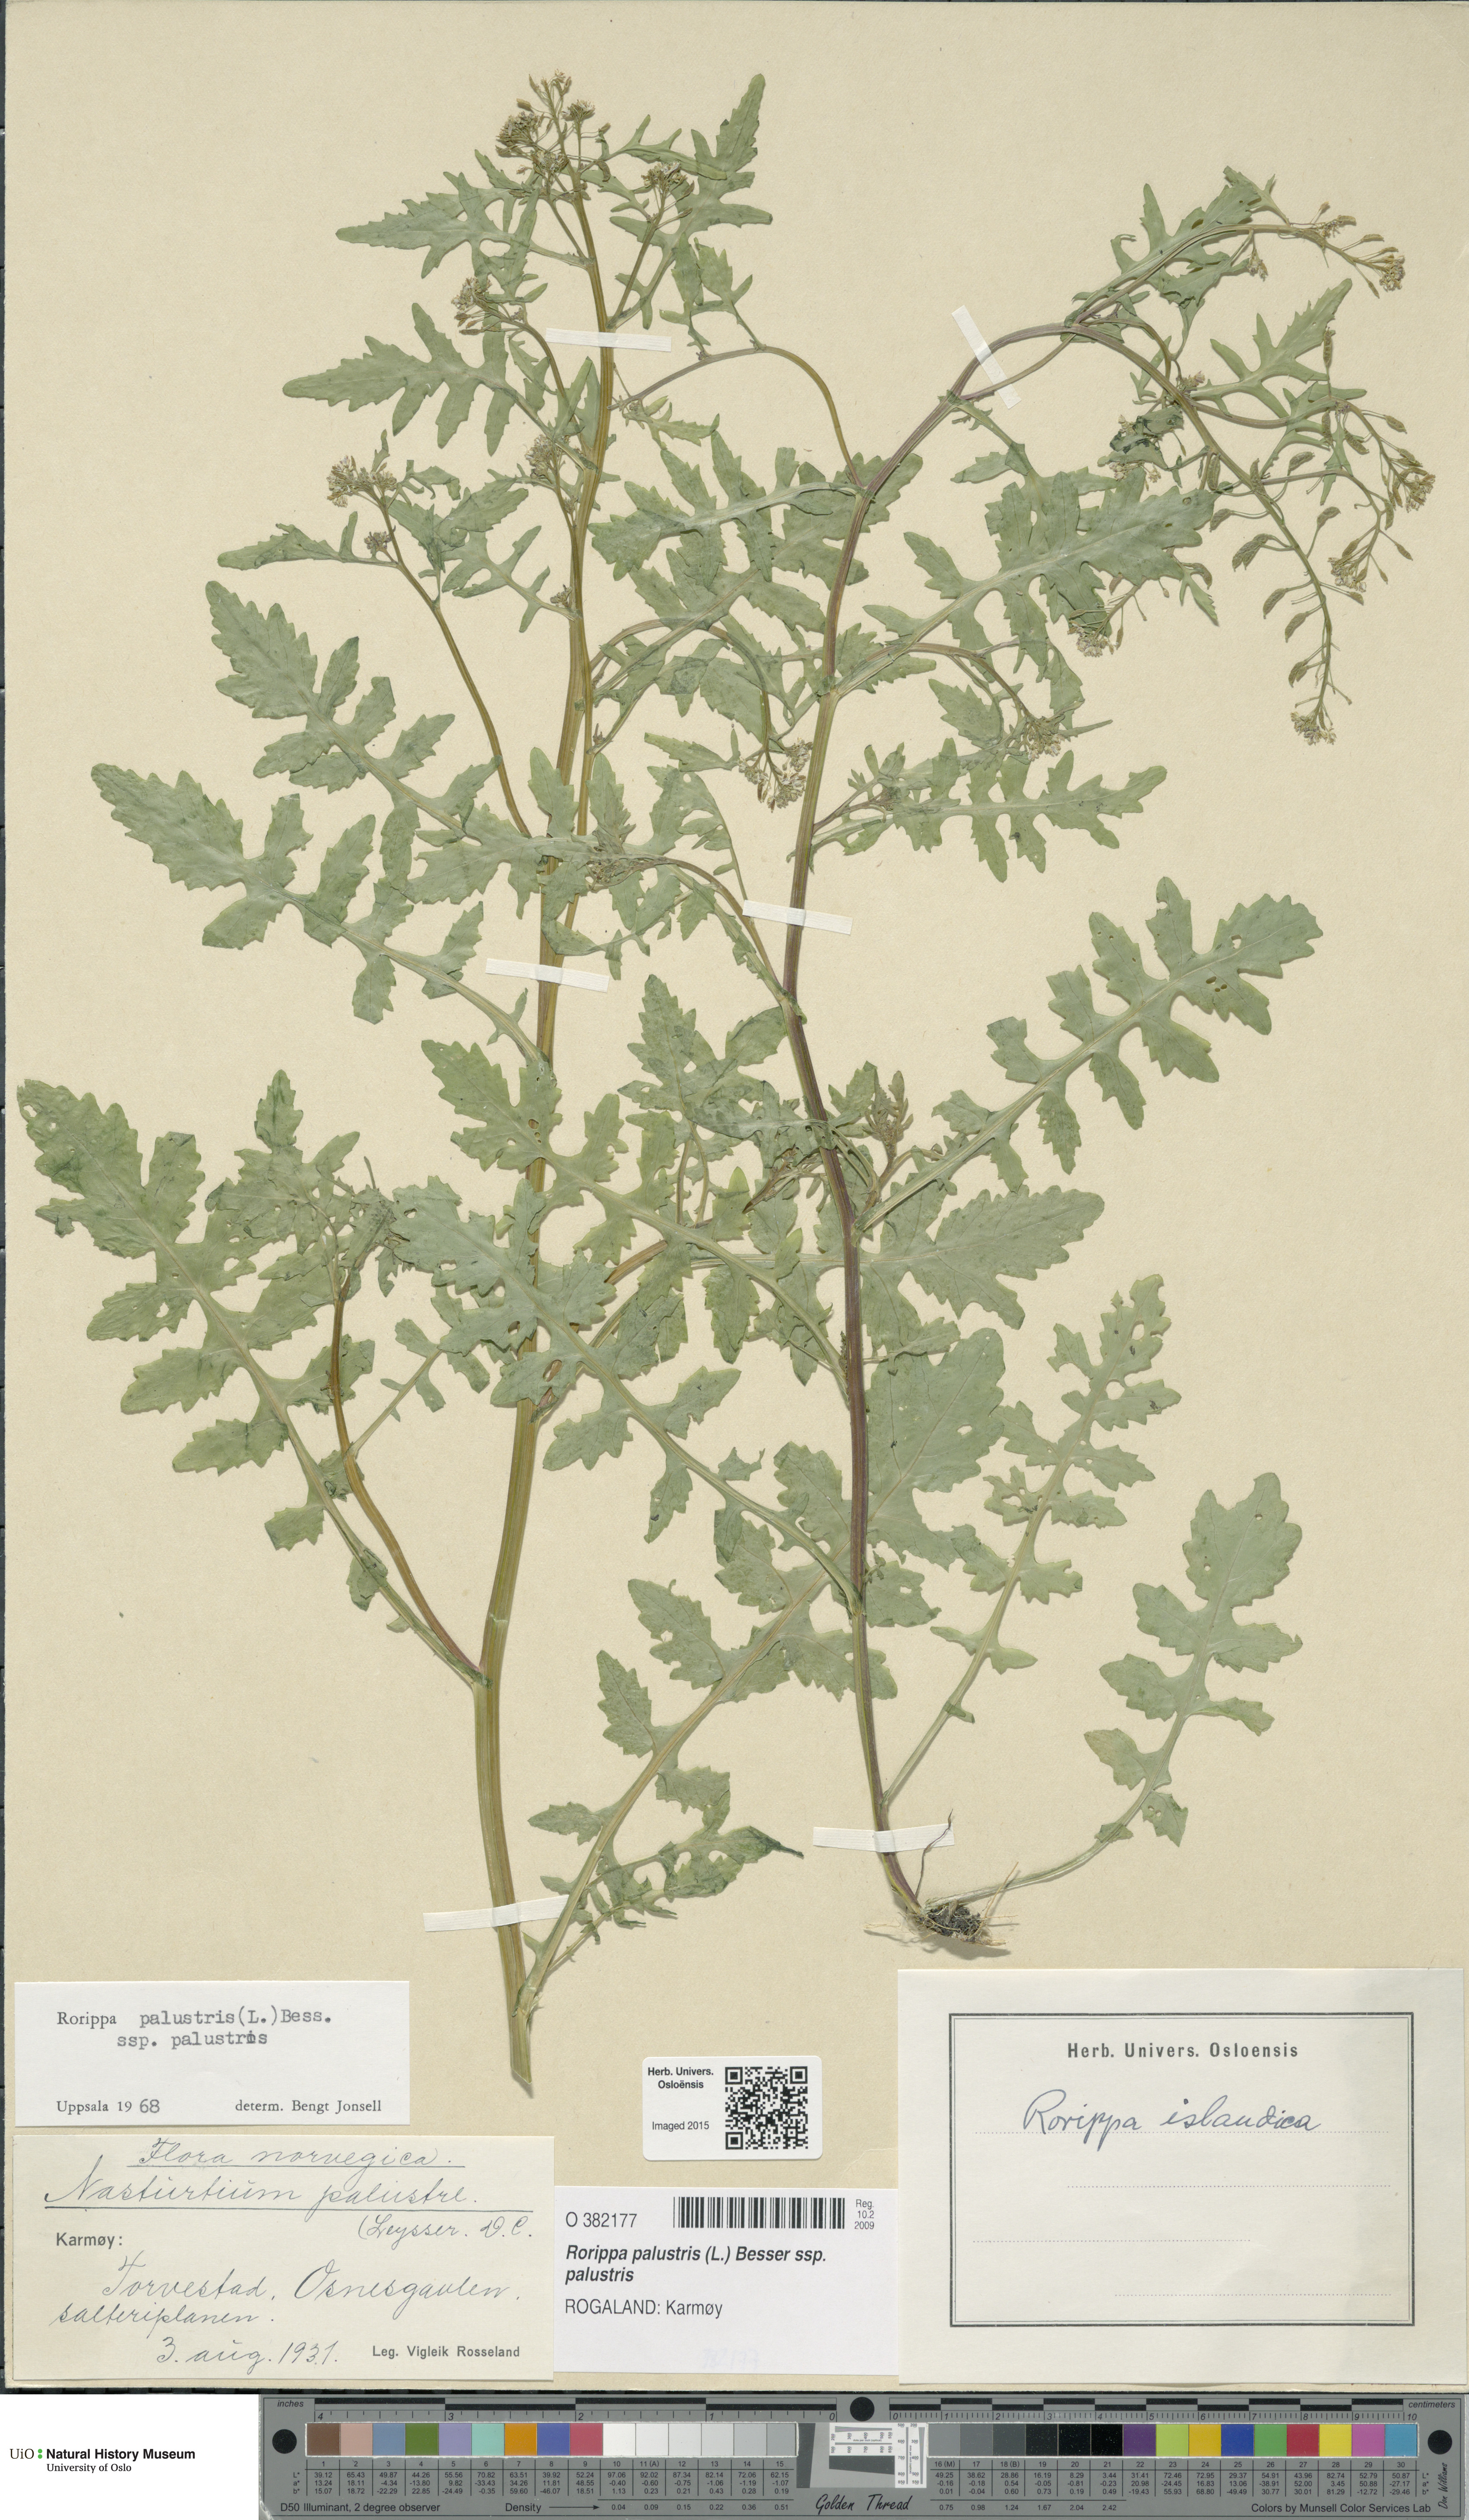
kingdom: Plantae
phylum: Tracheophyta
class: Magnoliopsida
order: Brassicales
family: Brassicaceae
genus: Rorippa
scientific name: Rorippa palustris
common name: Marsh yellow-cress
